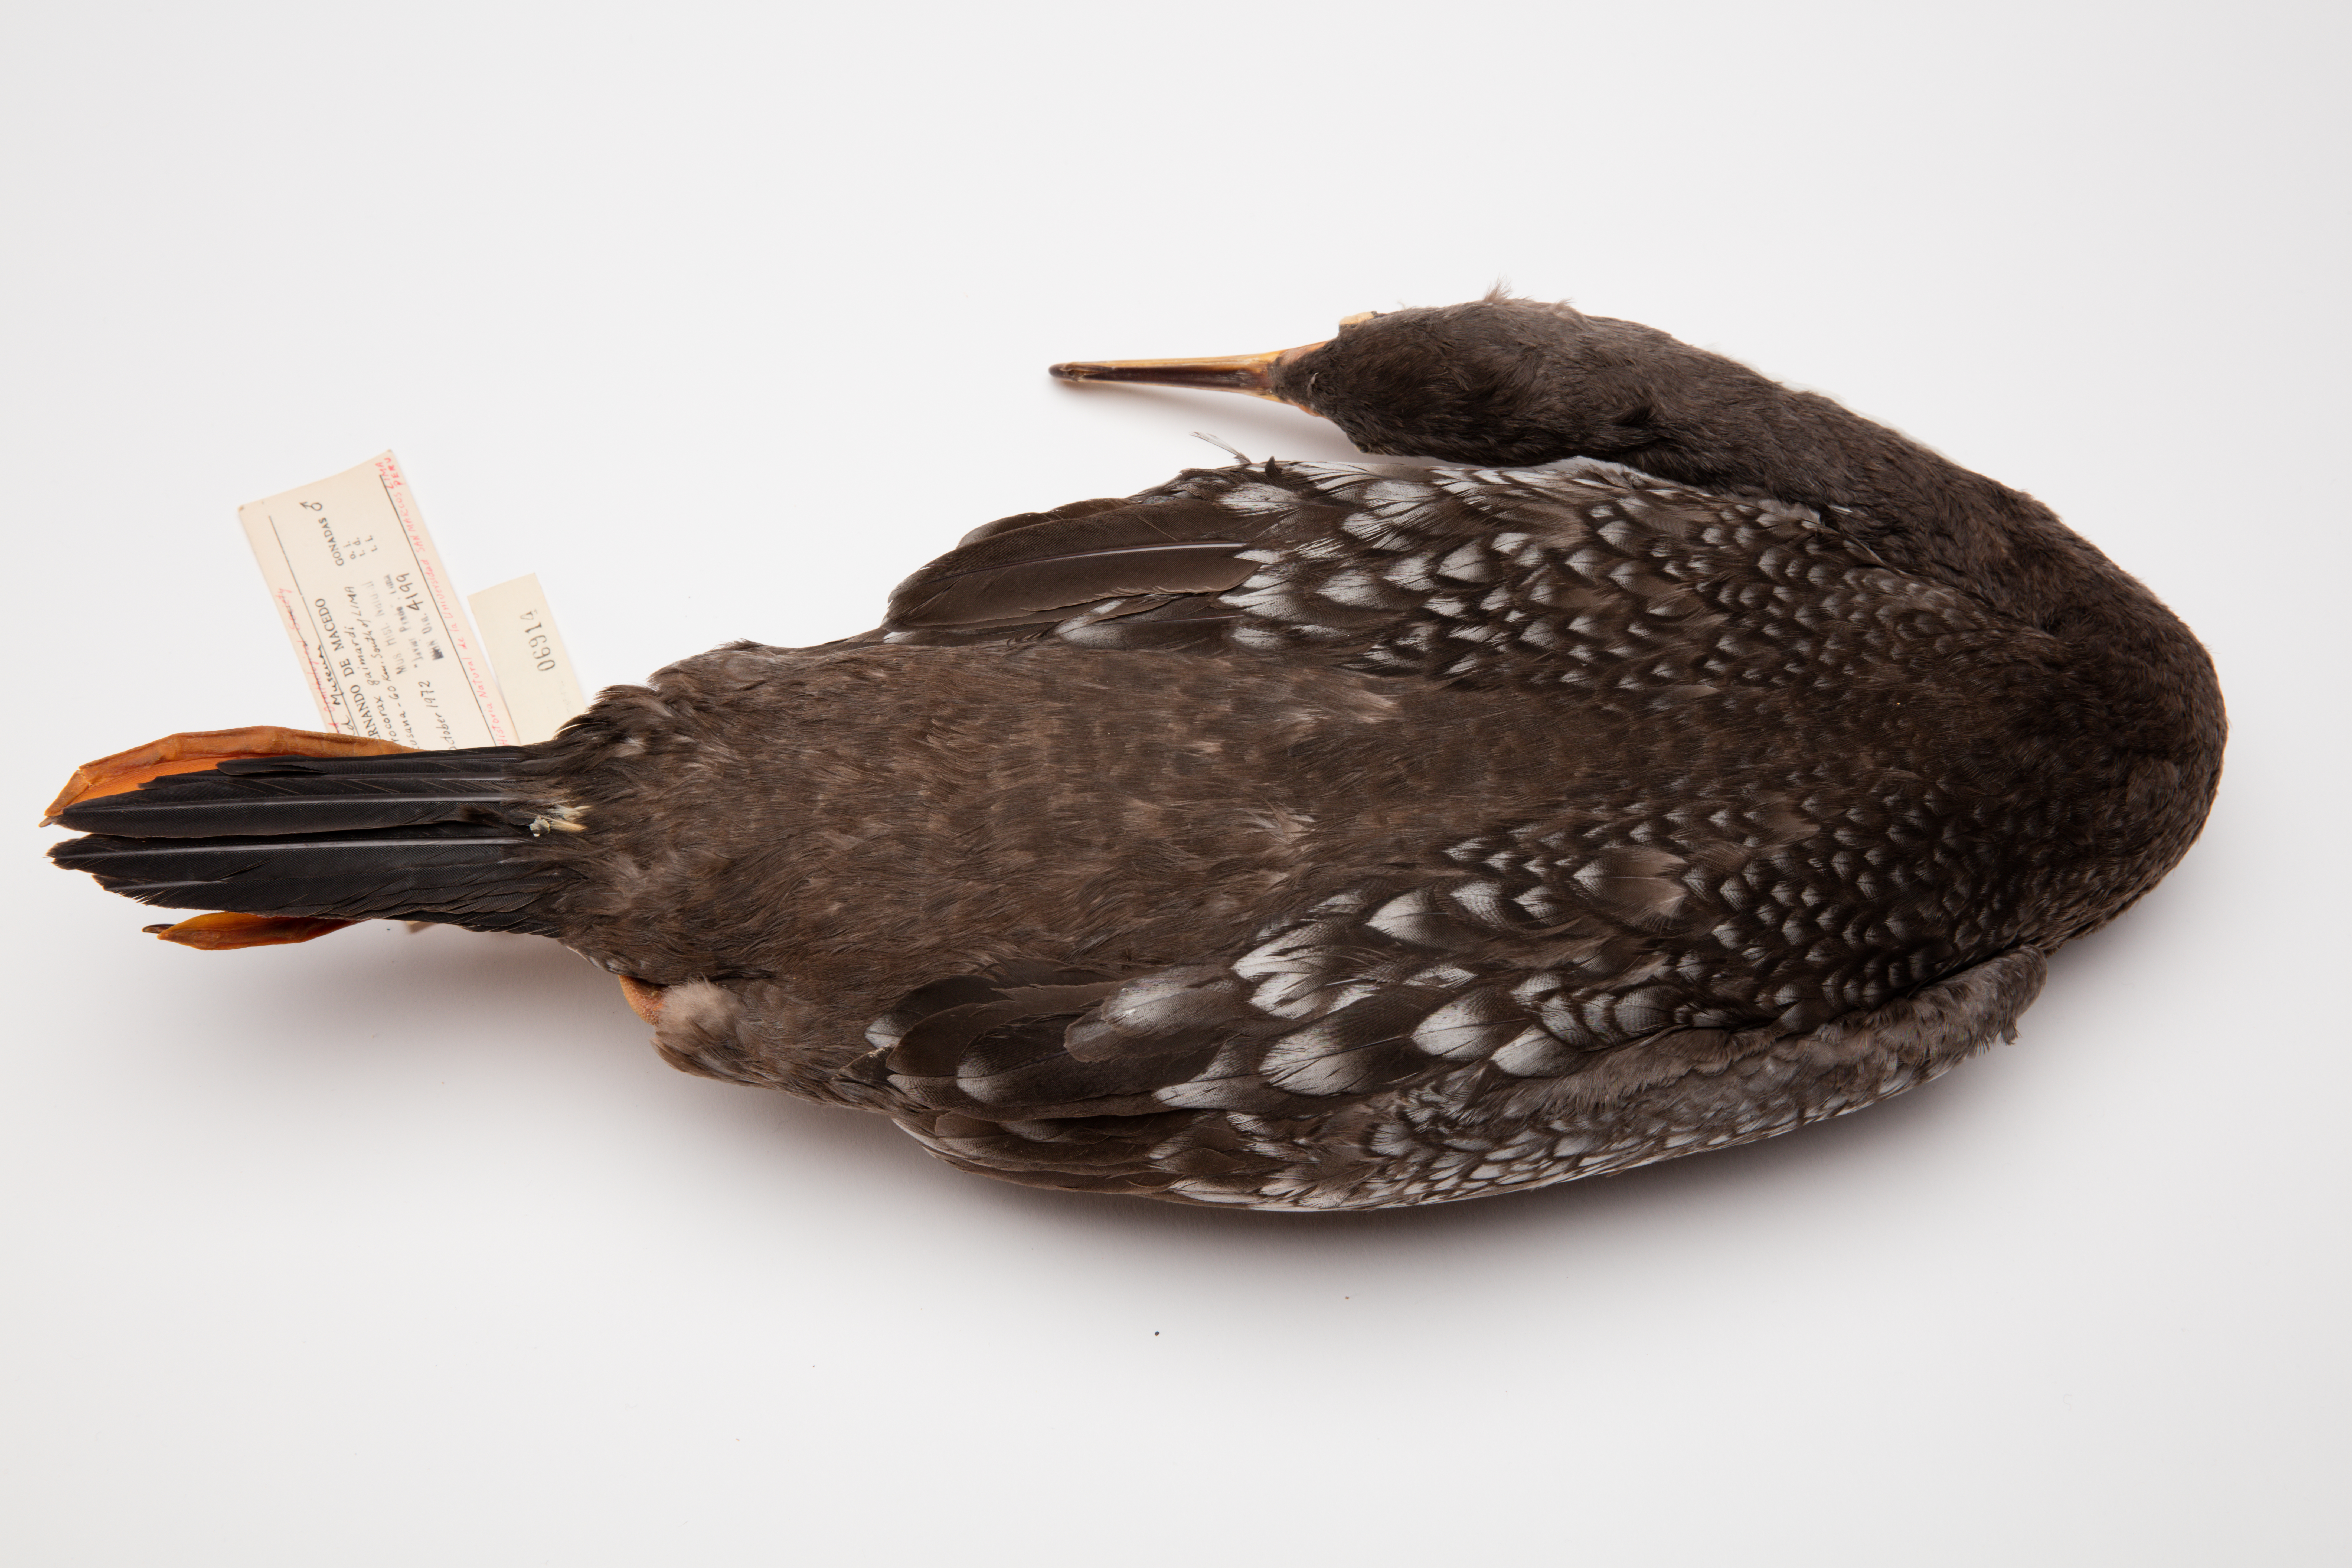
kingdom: Animalia
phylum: Chordata
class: Aves
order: Suliformes
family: Phalacrocoracidae
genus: Phalacrocorax
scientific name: Phalacrocorax gaimardi
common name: Red-legged cormorant
